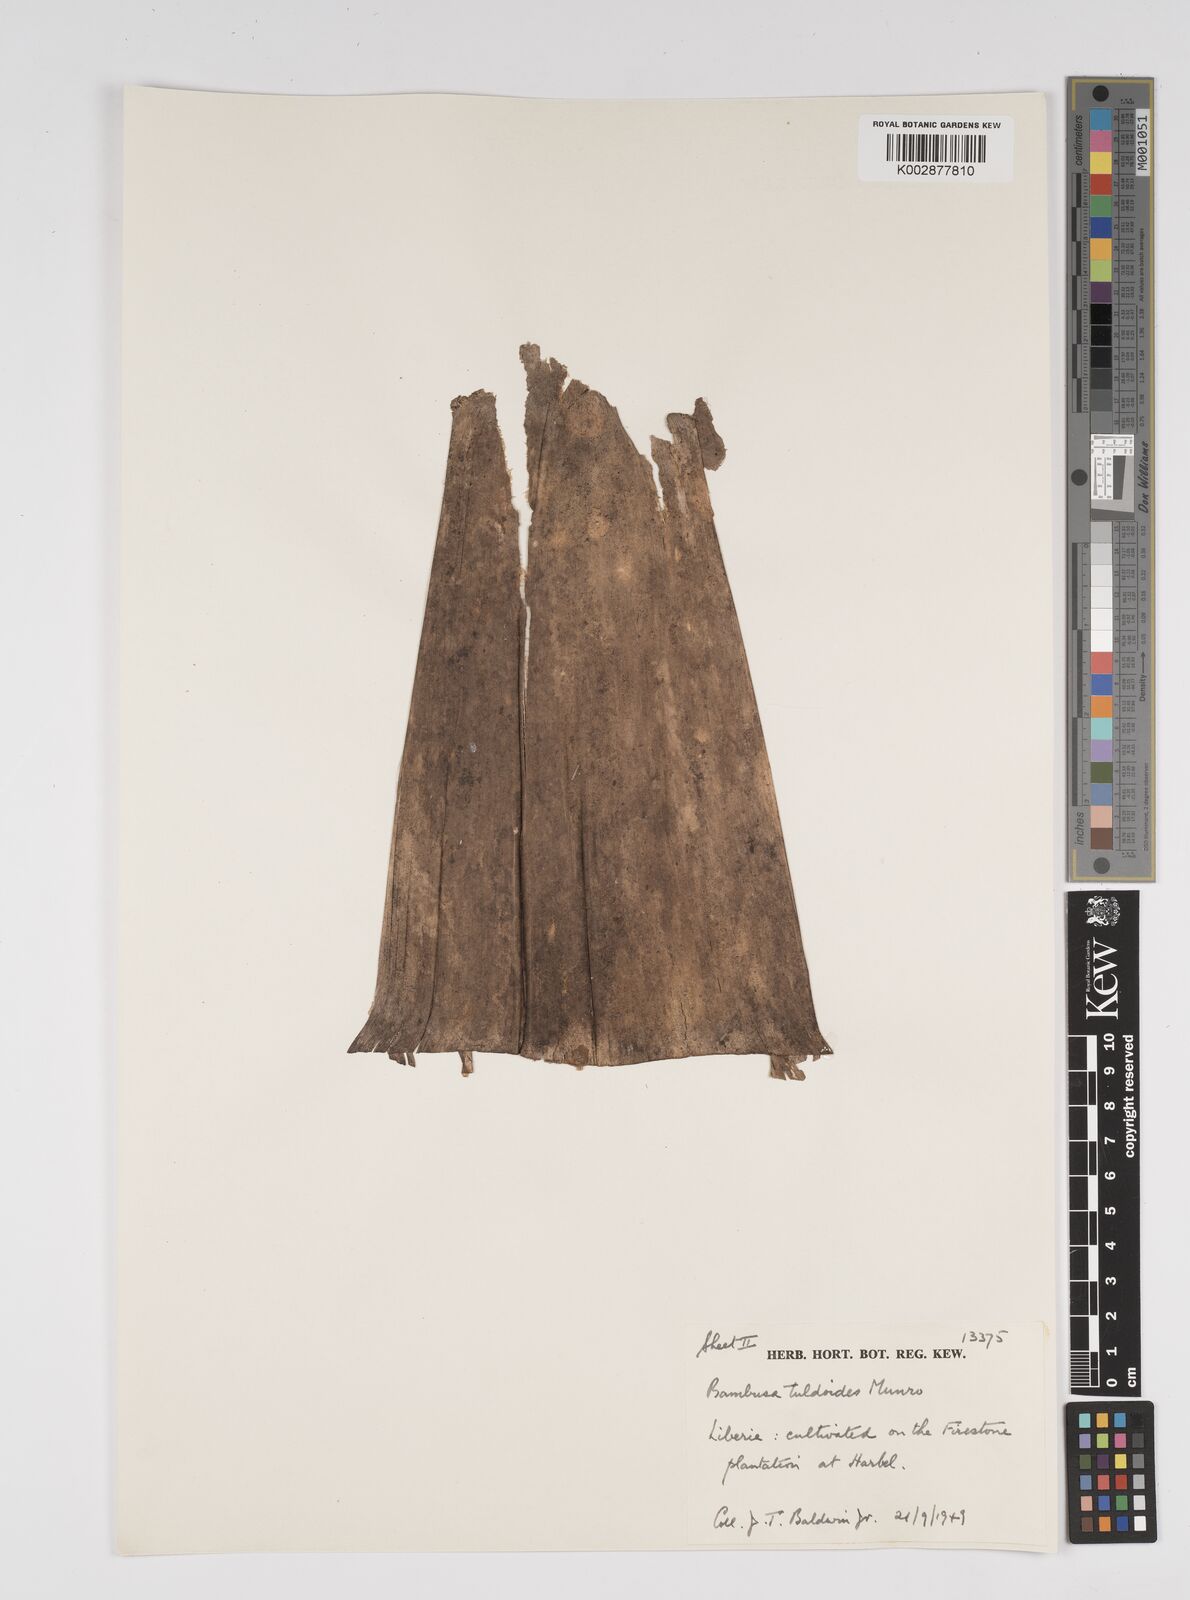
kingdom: Plantae
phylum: Tracheophyta
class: Liliopsida
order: Poales
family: Poaceae
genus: Bambusa
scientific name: Bambusa tuldoides
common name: Verdant bamboo
